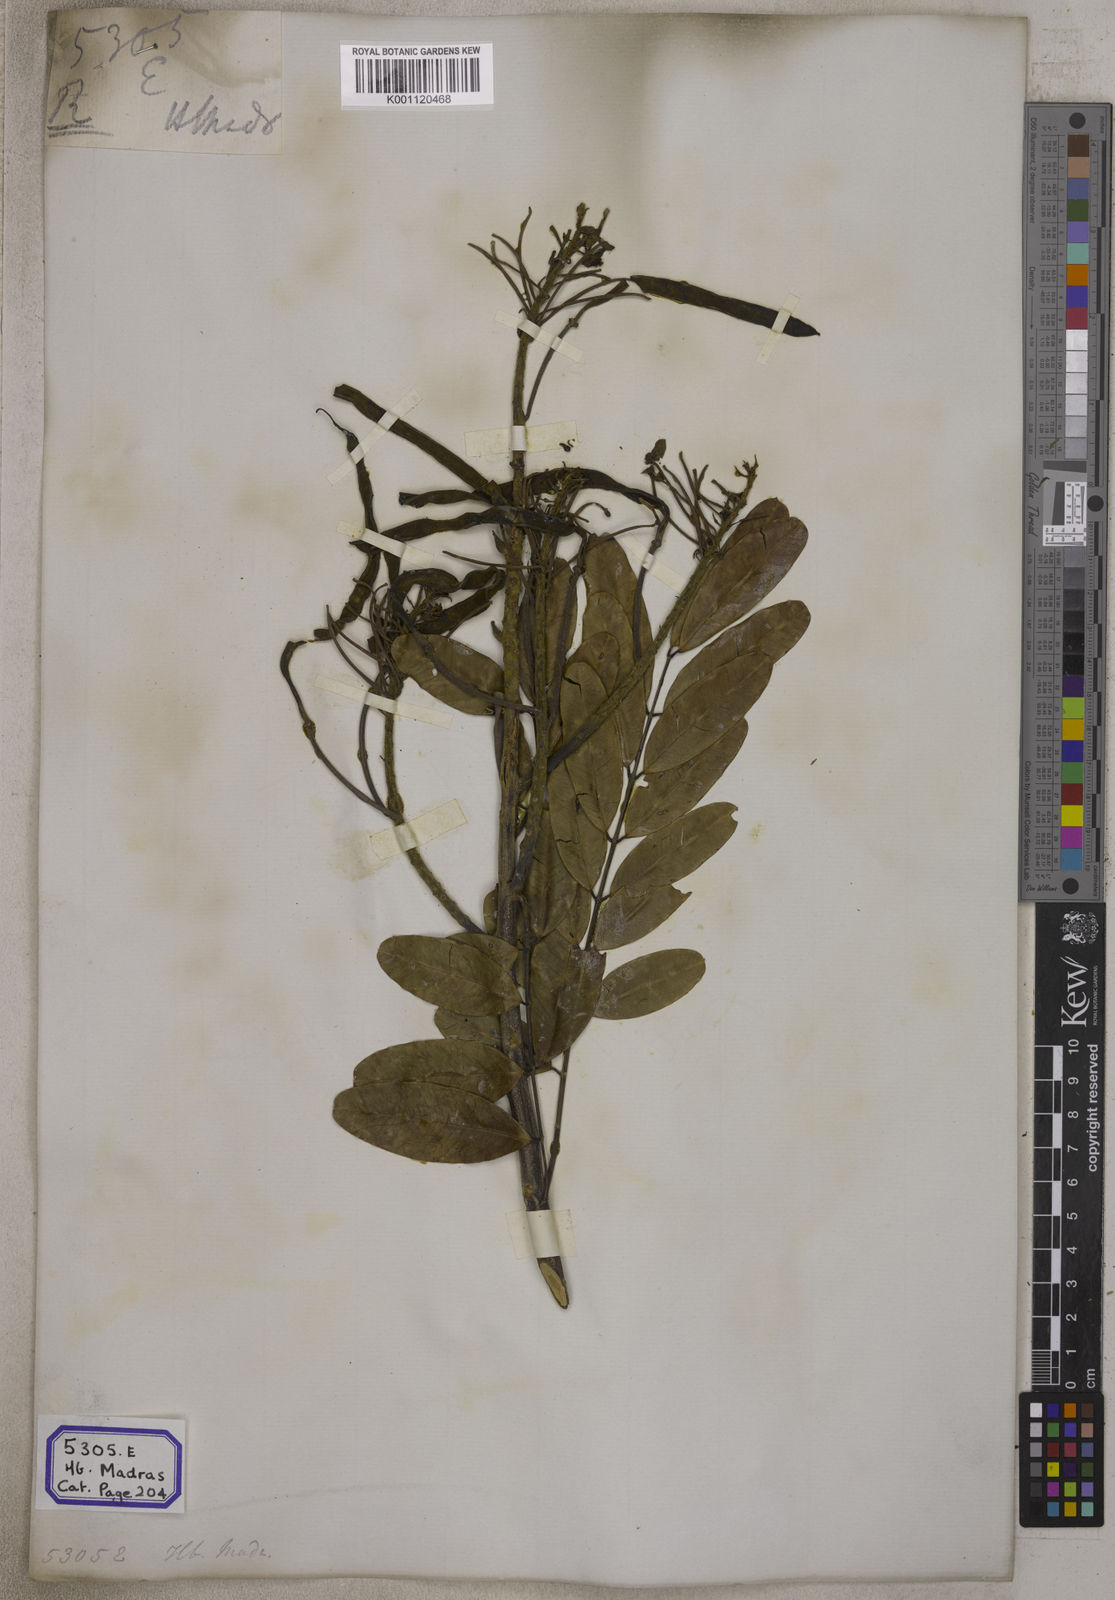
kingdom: Plantae
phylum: Tracheophyta
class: Magnoliopsida
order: Fabales
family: Fabaceae
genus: Cassia
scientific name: Cassia
